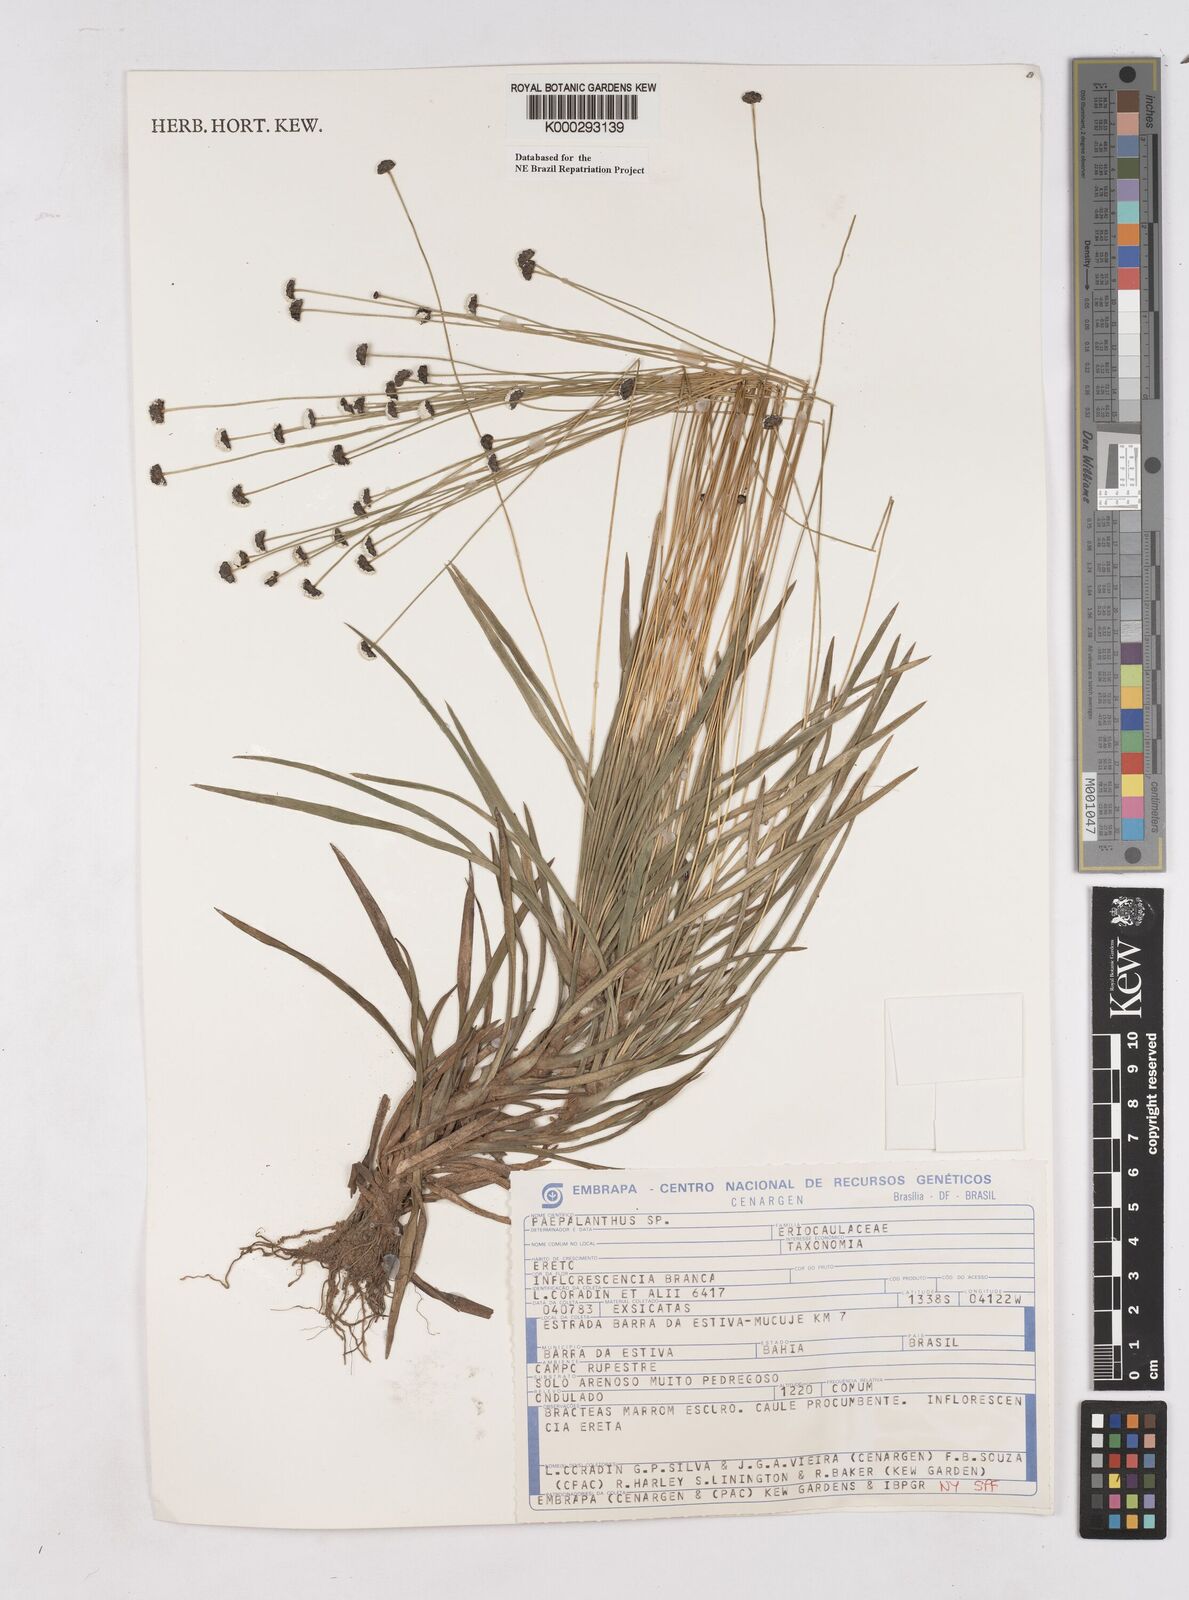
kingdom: Plantae
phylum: Tracheophyta
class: Liliopsida
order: Poales
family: Eriocaulaceae
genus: Paepalanthus
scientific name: Paepalanthus
